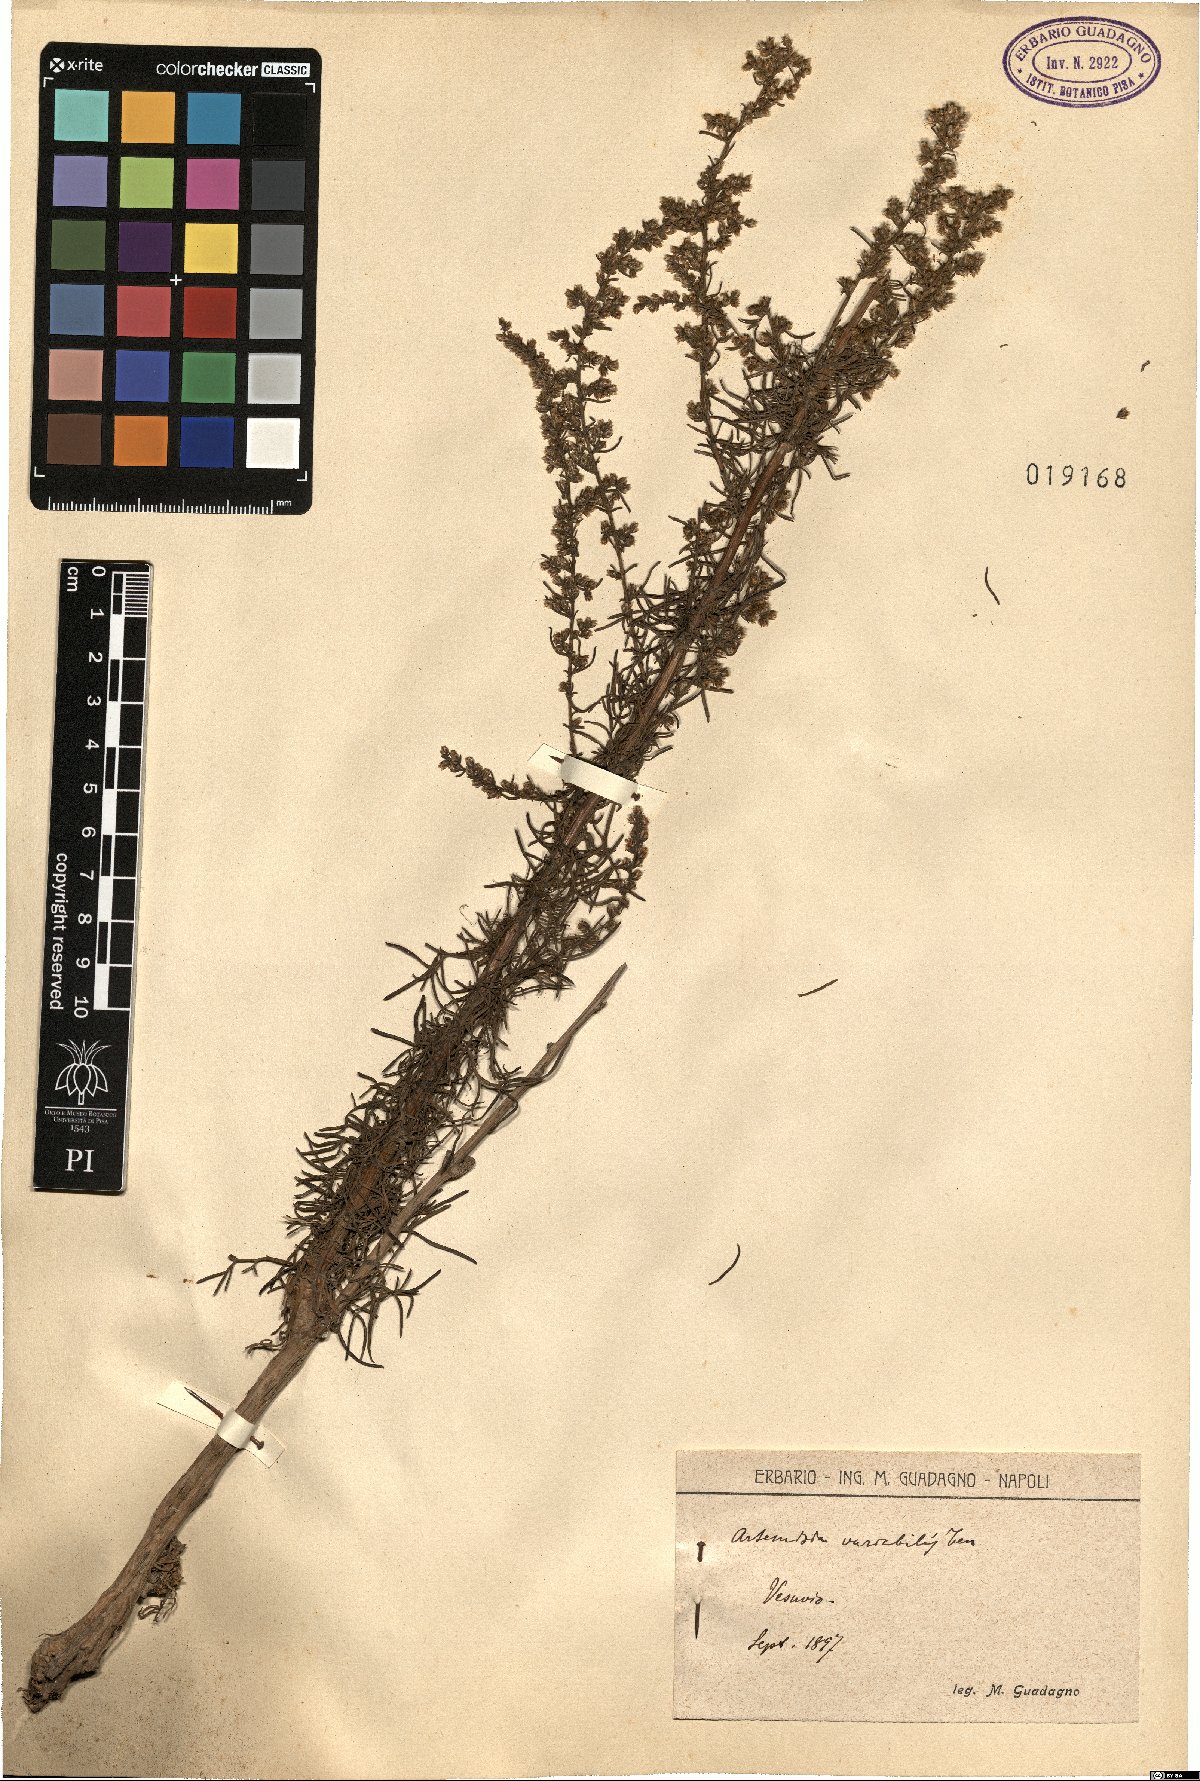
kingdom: Plantae
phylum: Tracheophyta
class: Magnoliopsida
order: Asterales
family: Asteraceae
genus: Artemisia
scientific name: Artemisia campestris
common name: Field wormwood
